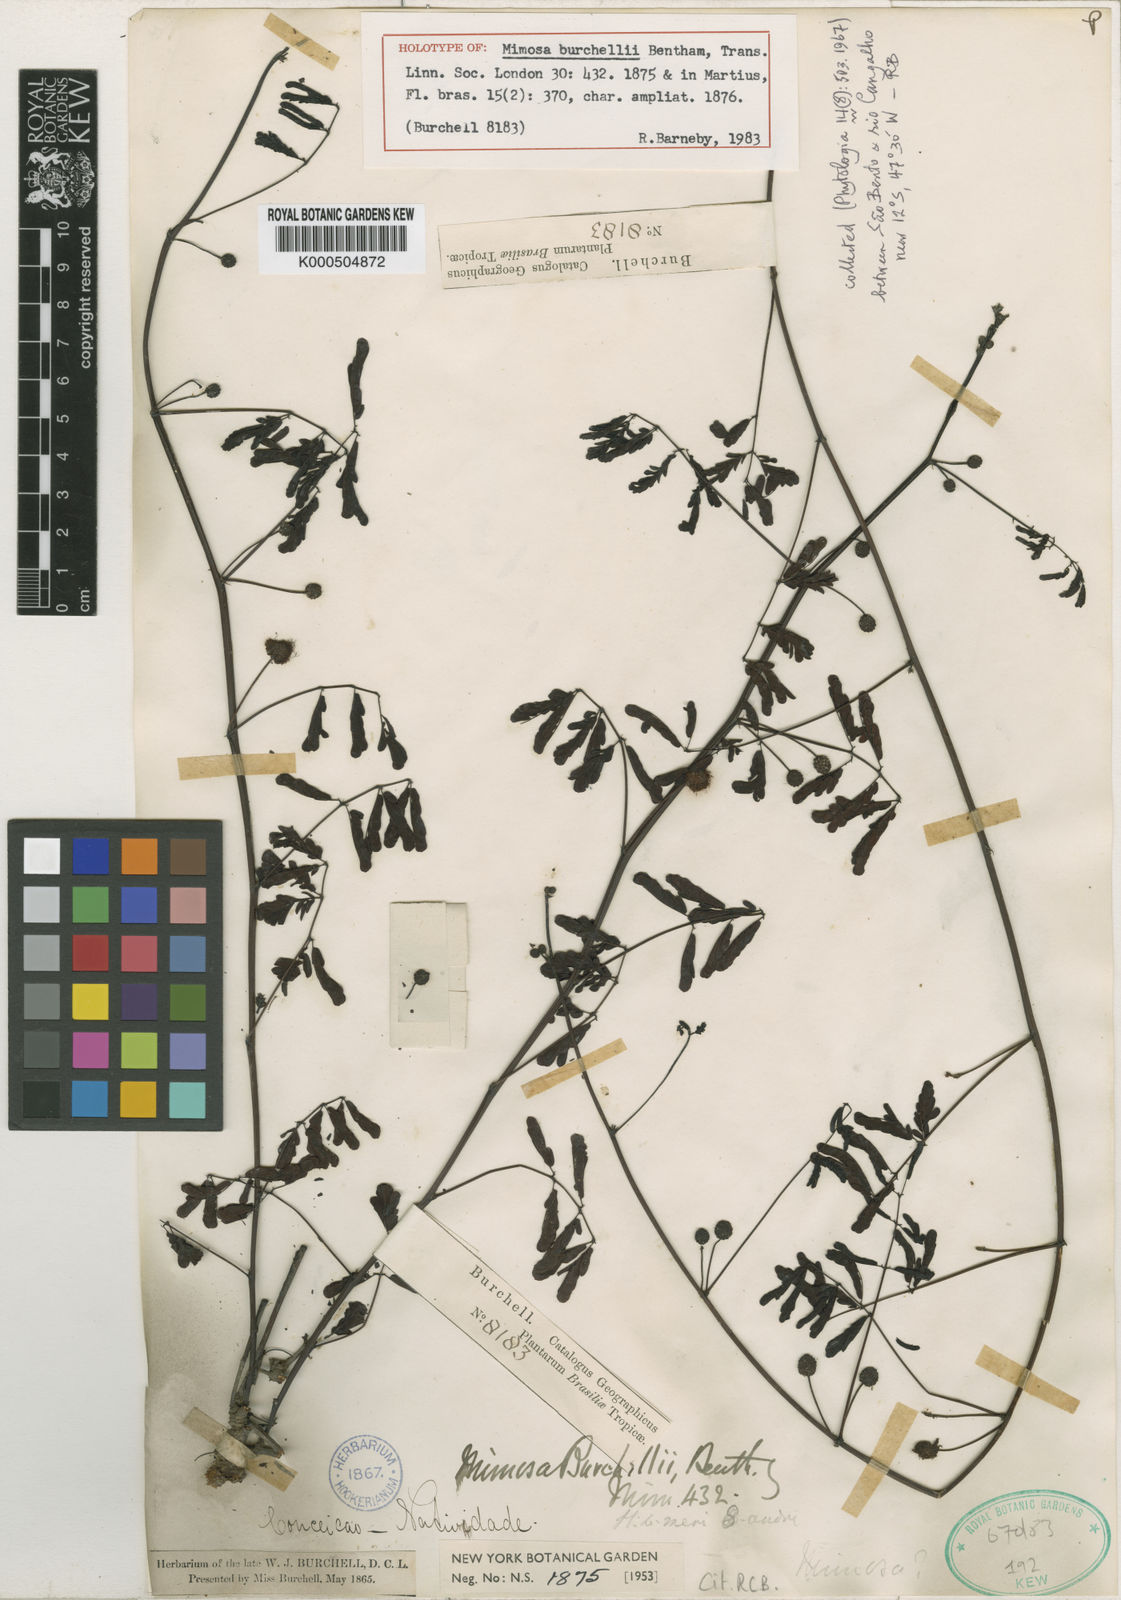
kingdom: Plantae
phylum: Tracheophyta
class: Magnoliopsida
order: Fabales
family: Fabaceae
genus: Mimosa
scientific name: Mimosa burchellii
